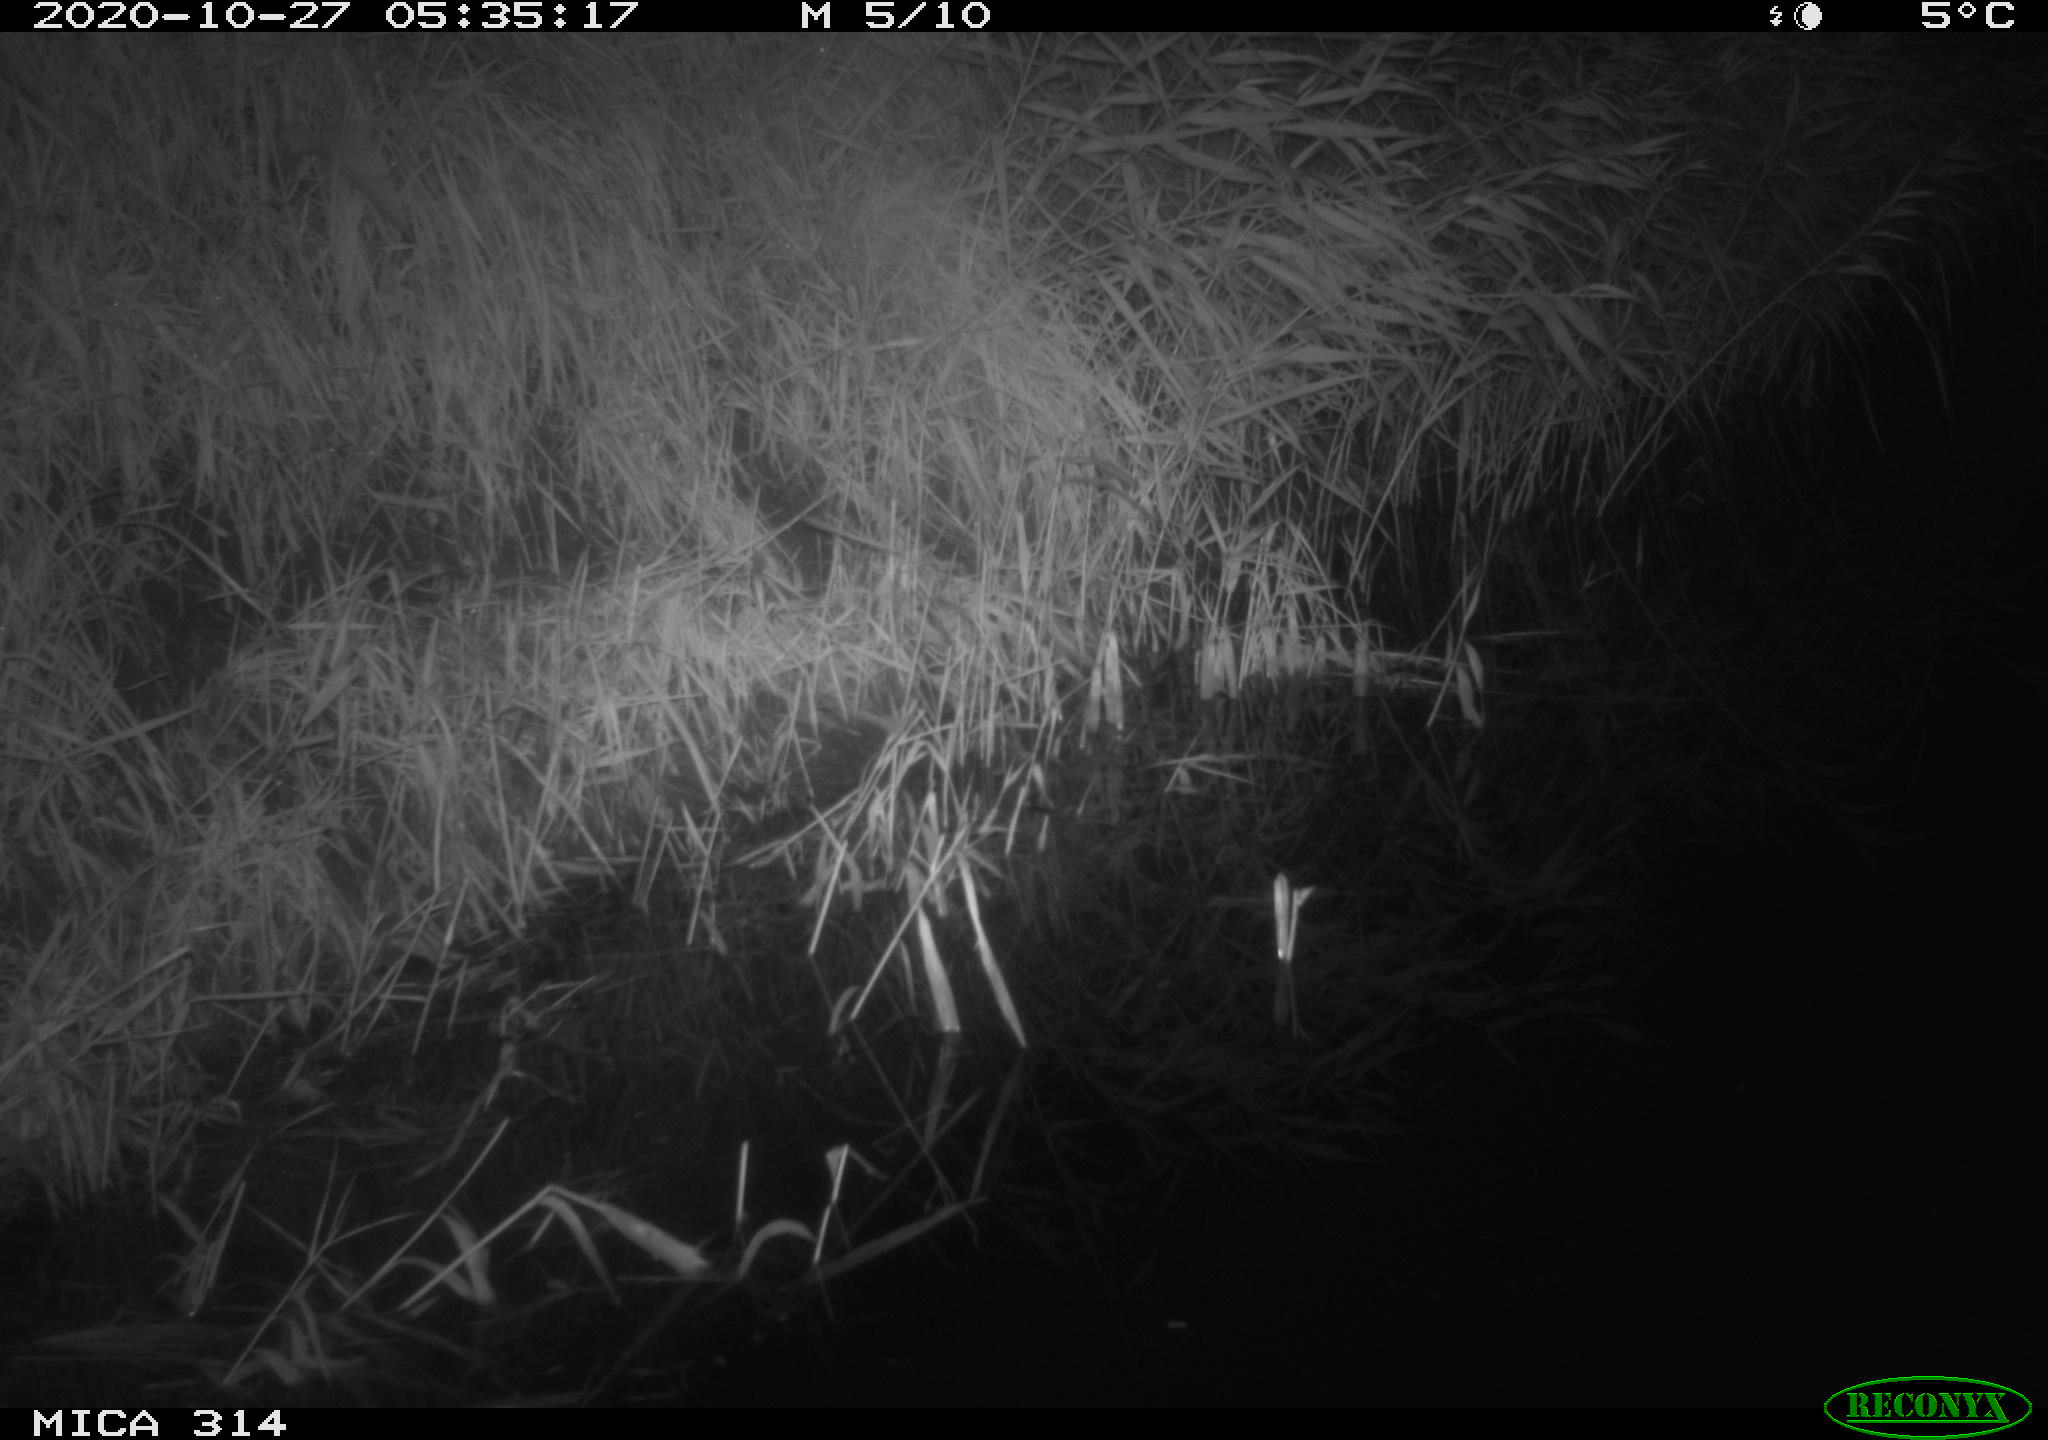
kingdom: Animalia
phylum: Chordata
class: Mammalia
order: Rodentia
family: Muridae
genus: Rattus
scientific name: Rattus norvegicus
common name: Brown rat
